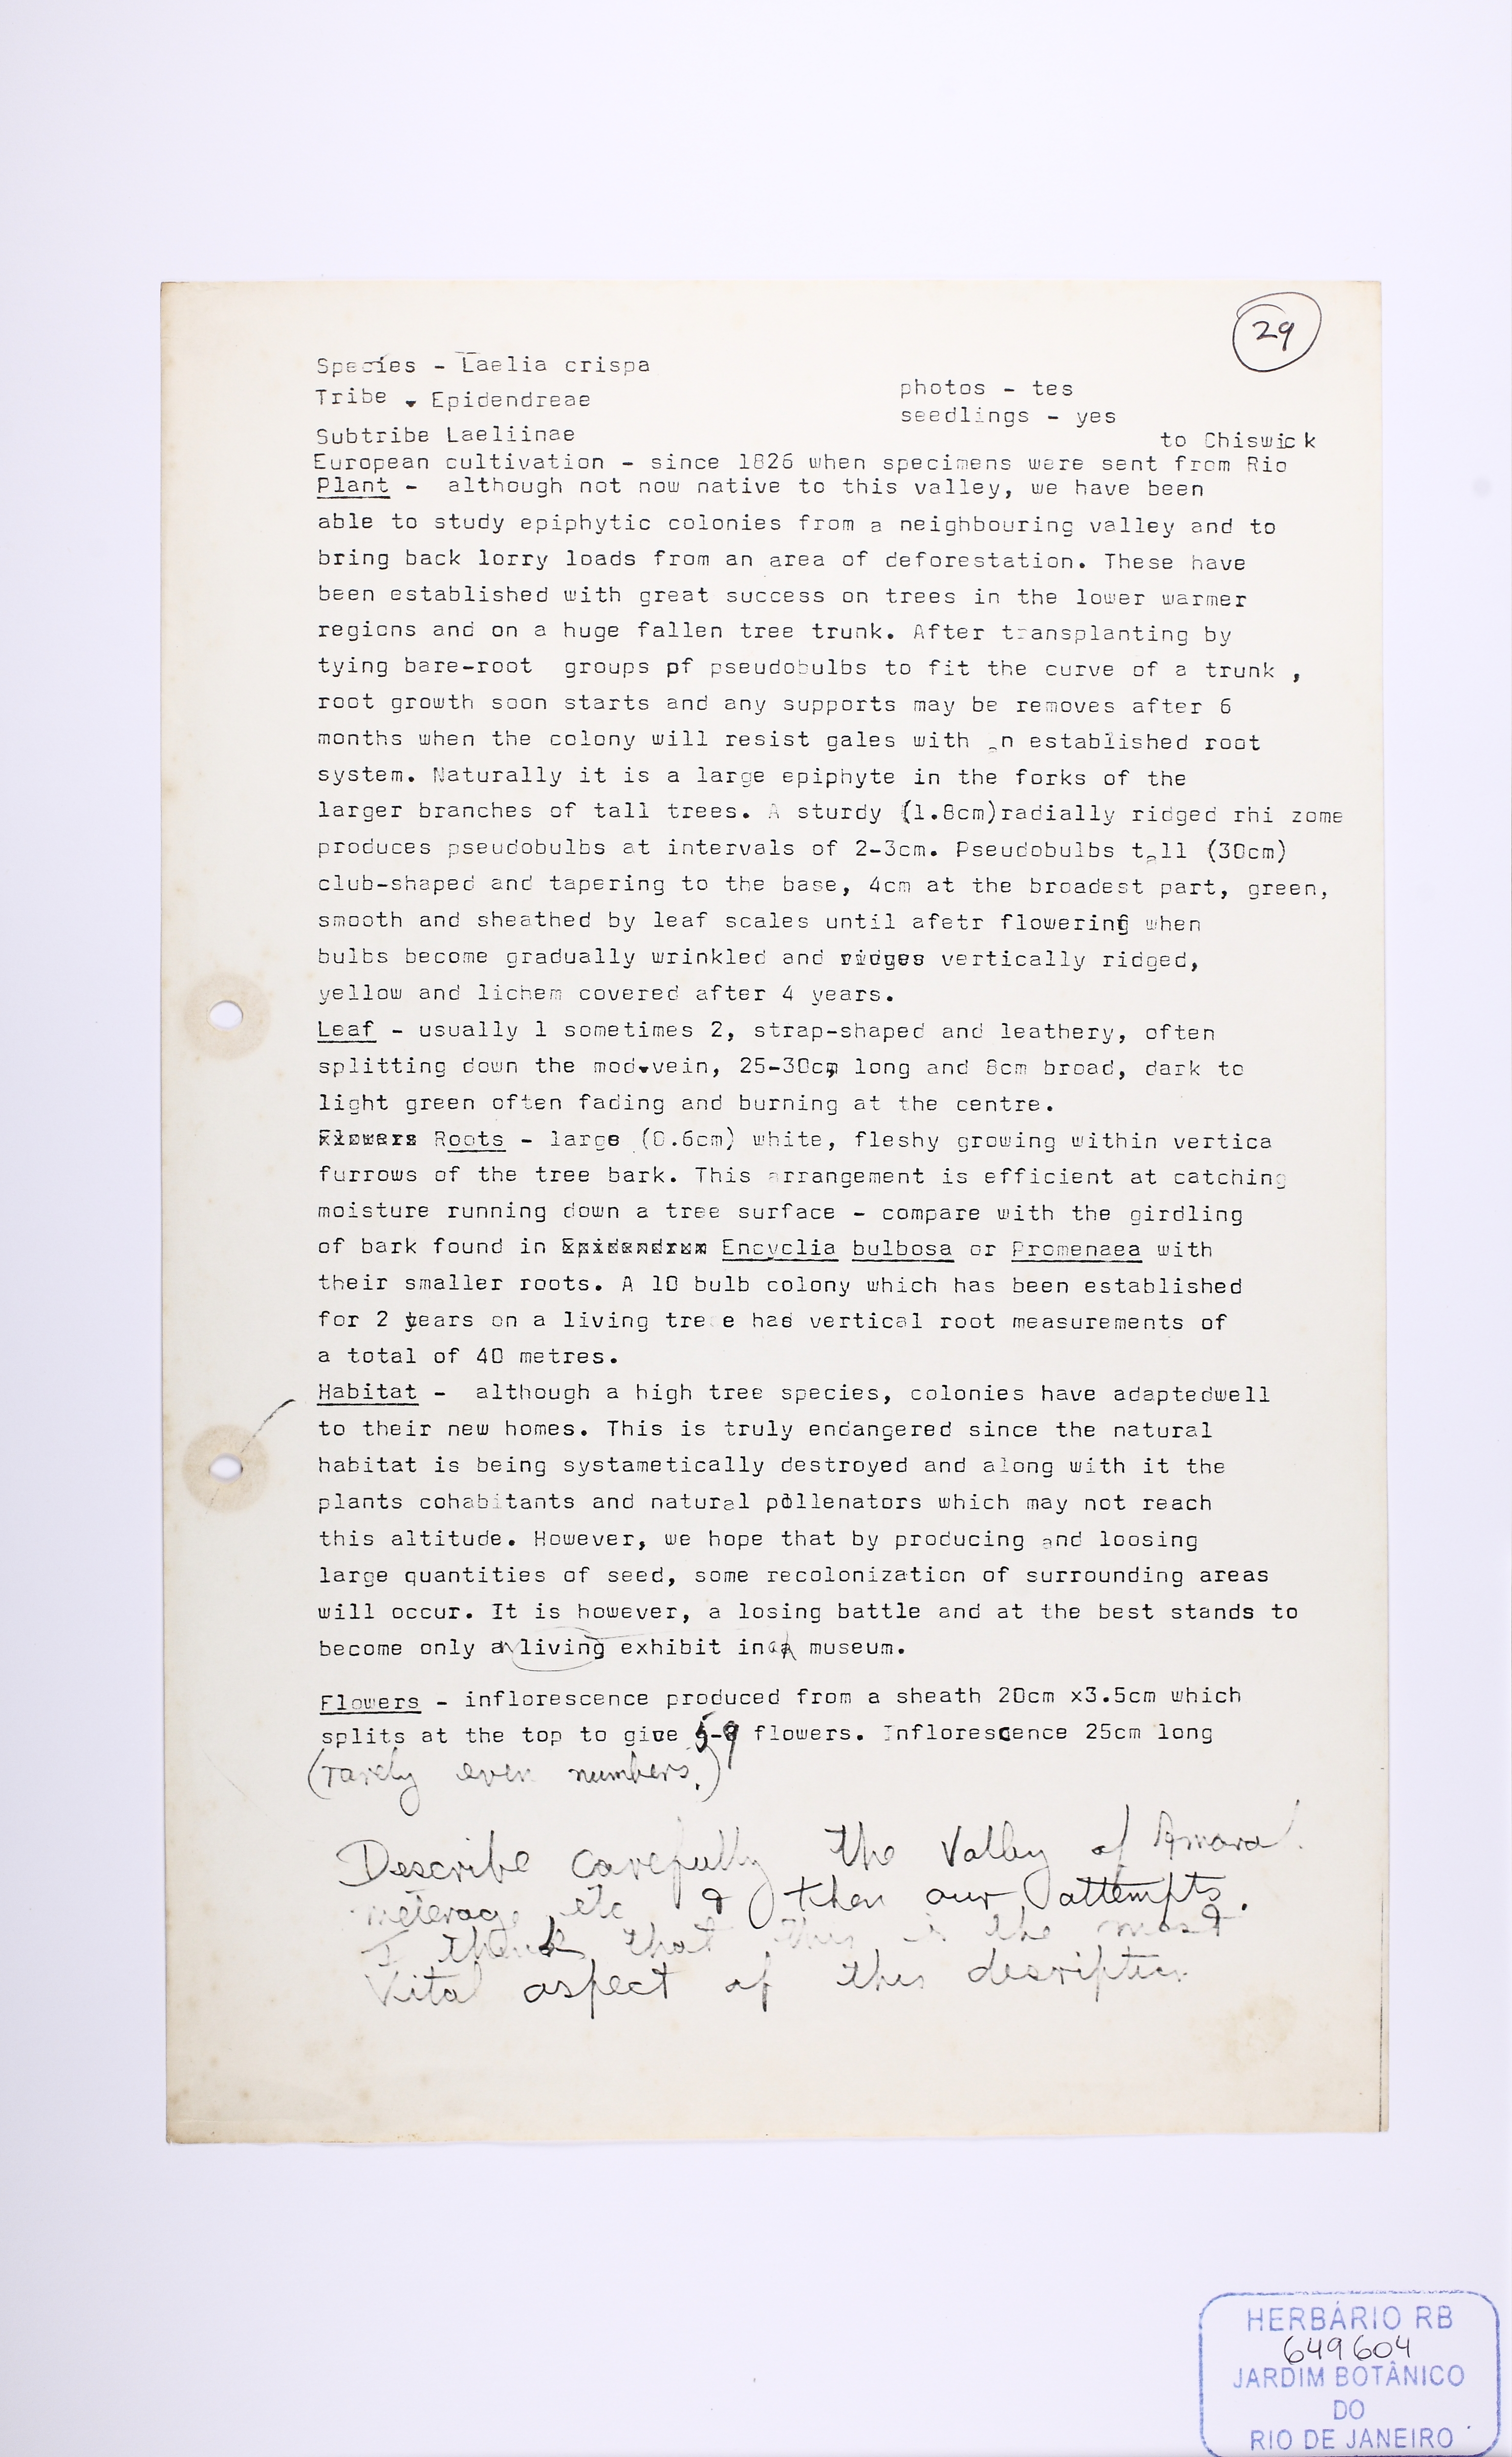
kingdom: Plantae
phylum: Tracheophyta
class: Liliopsida
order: Asparagales
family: Orchidaceae
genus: Cattleya
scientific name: Cattleya crispa
